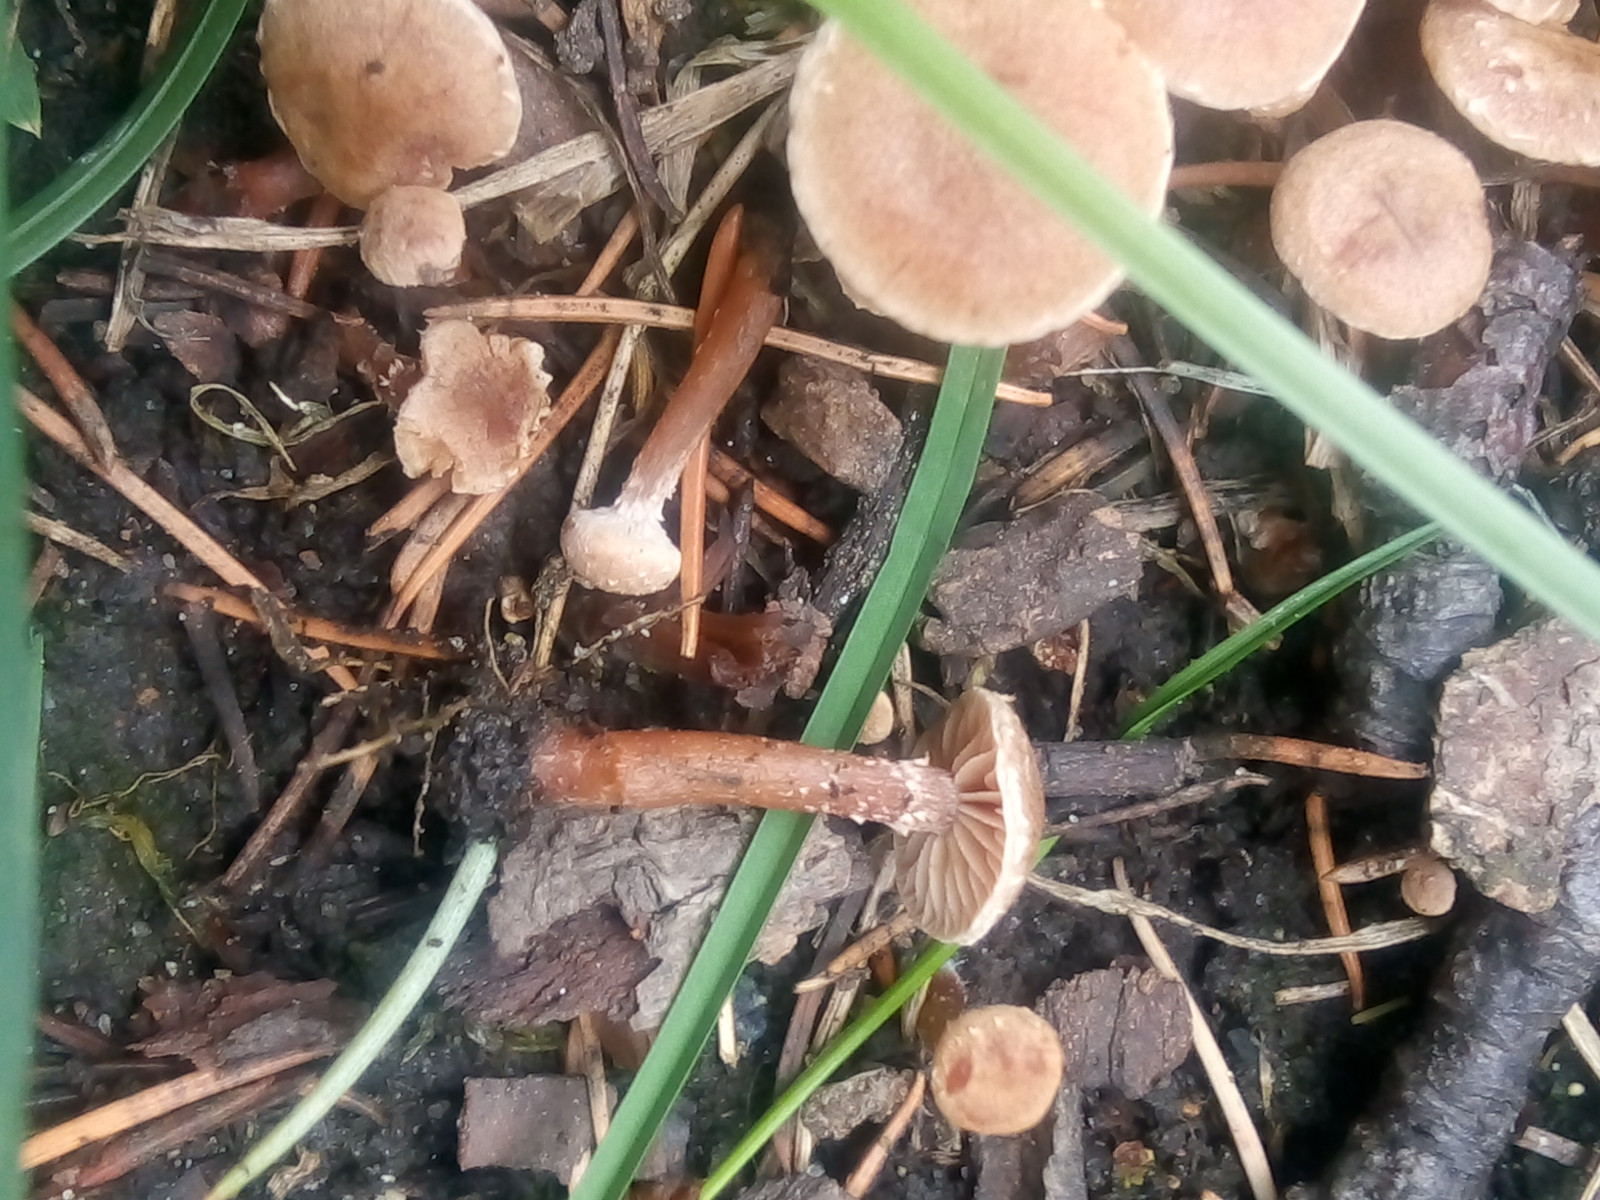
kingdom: Fungi
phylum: Basidiomycota
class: Agaricomycetes
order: Agaricales
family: Tubariaceae
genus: Tubaria
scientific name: Tubaria conspersa
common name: bleg fnughat
